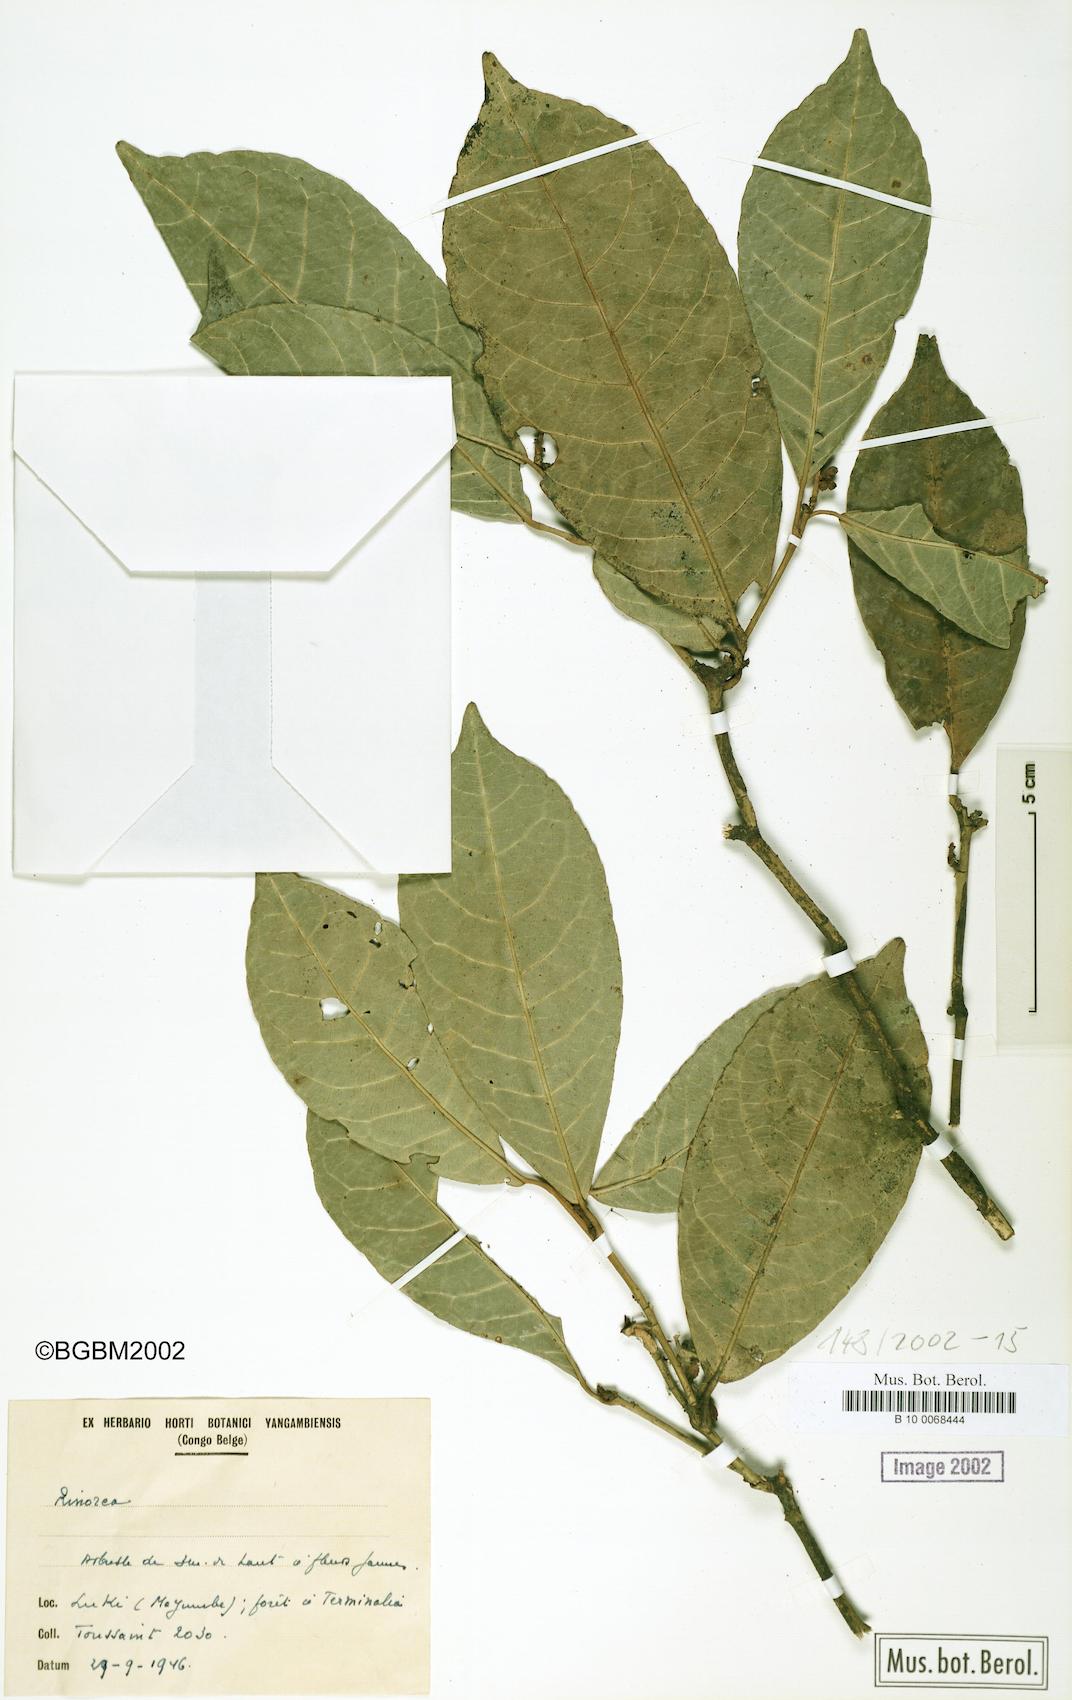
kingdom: Plantae
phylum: Tracheophyta
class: Magnoliopsida
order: Malpighiales
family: Violaceae
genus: Rinorea
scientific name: Rinorea
